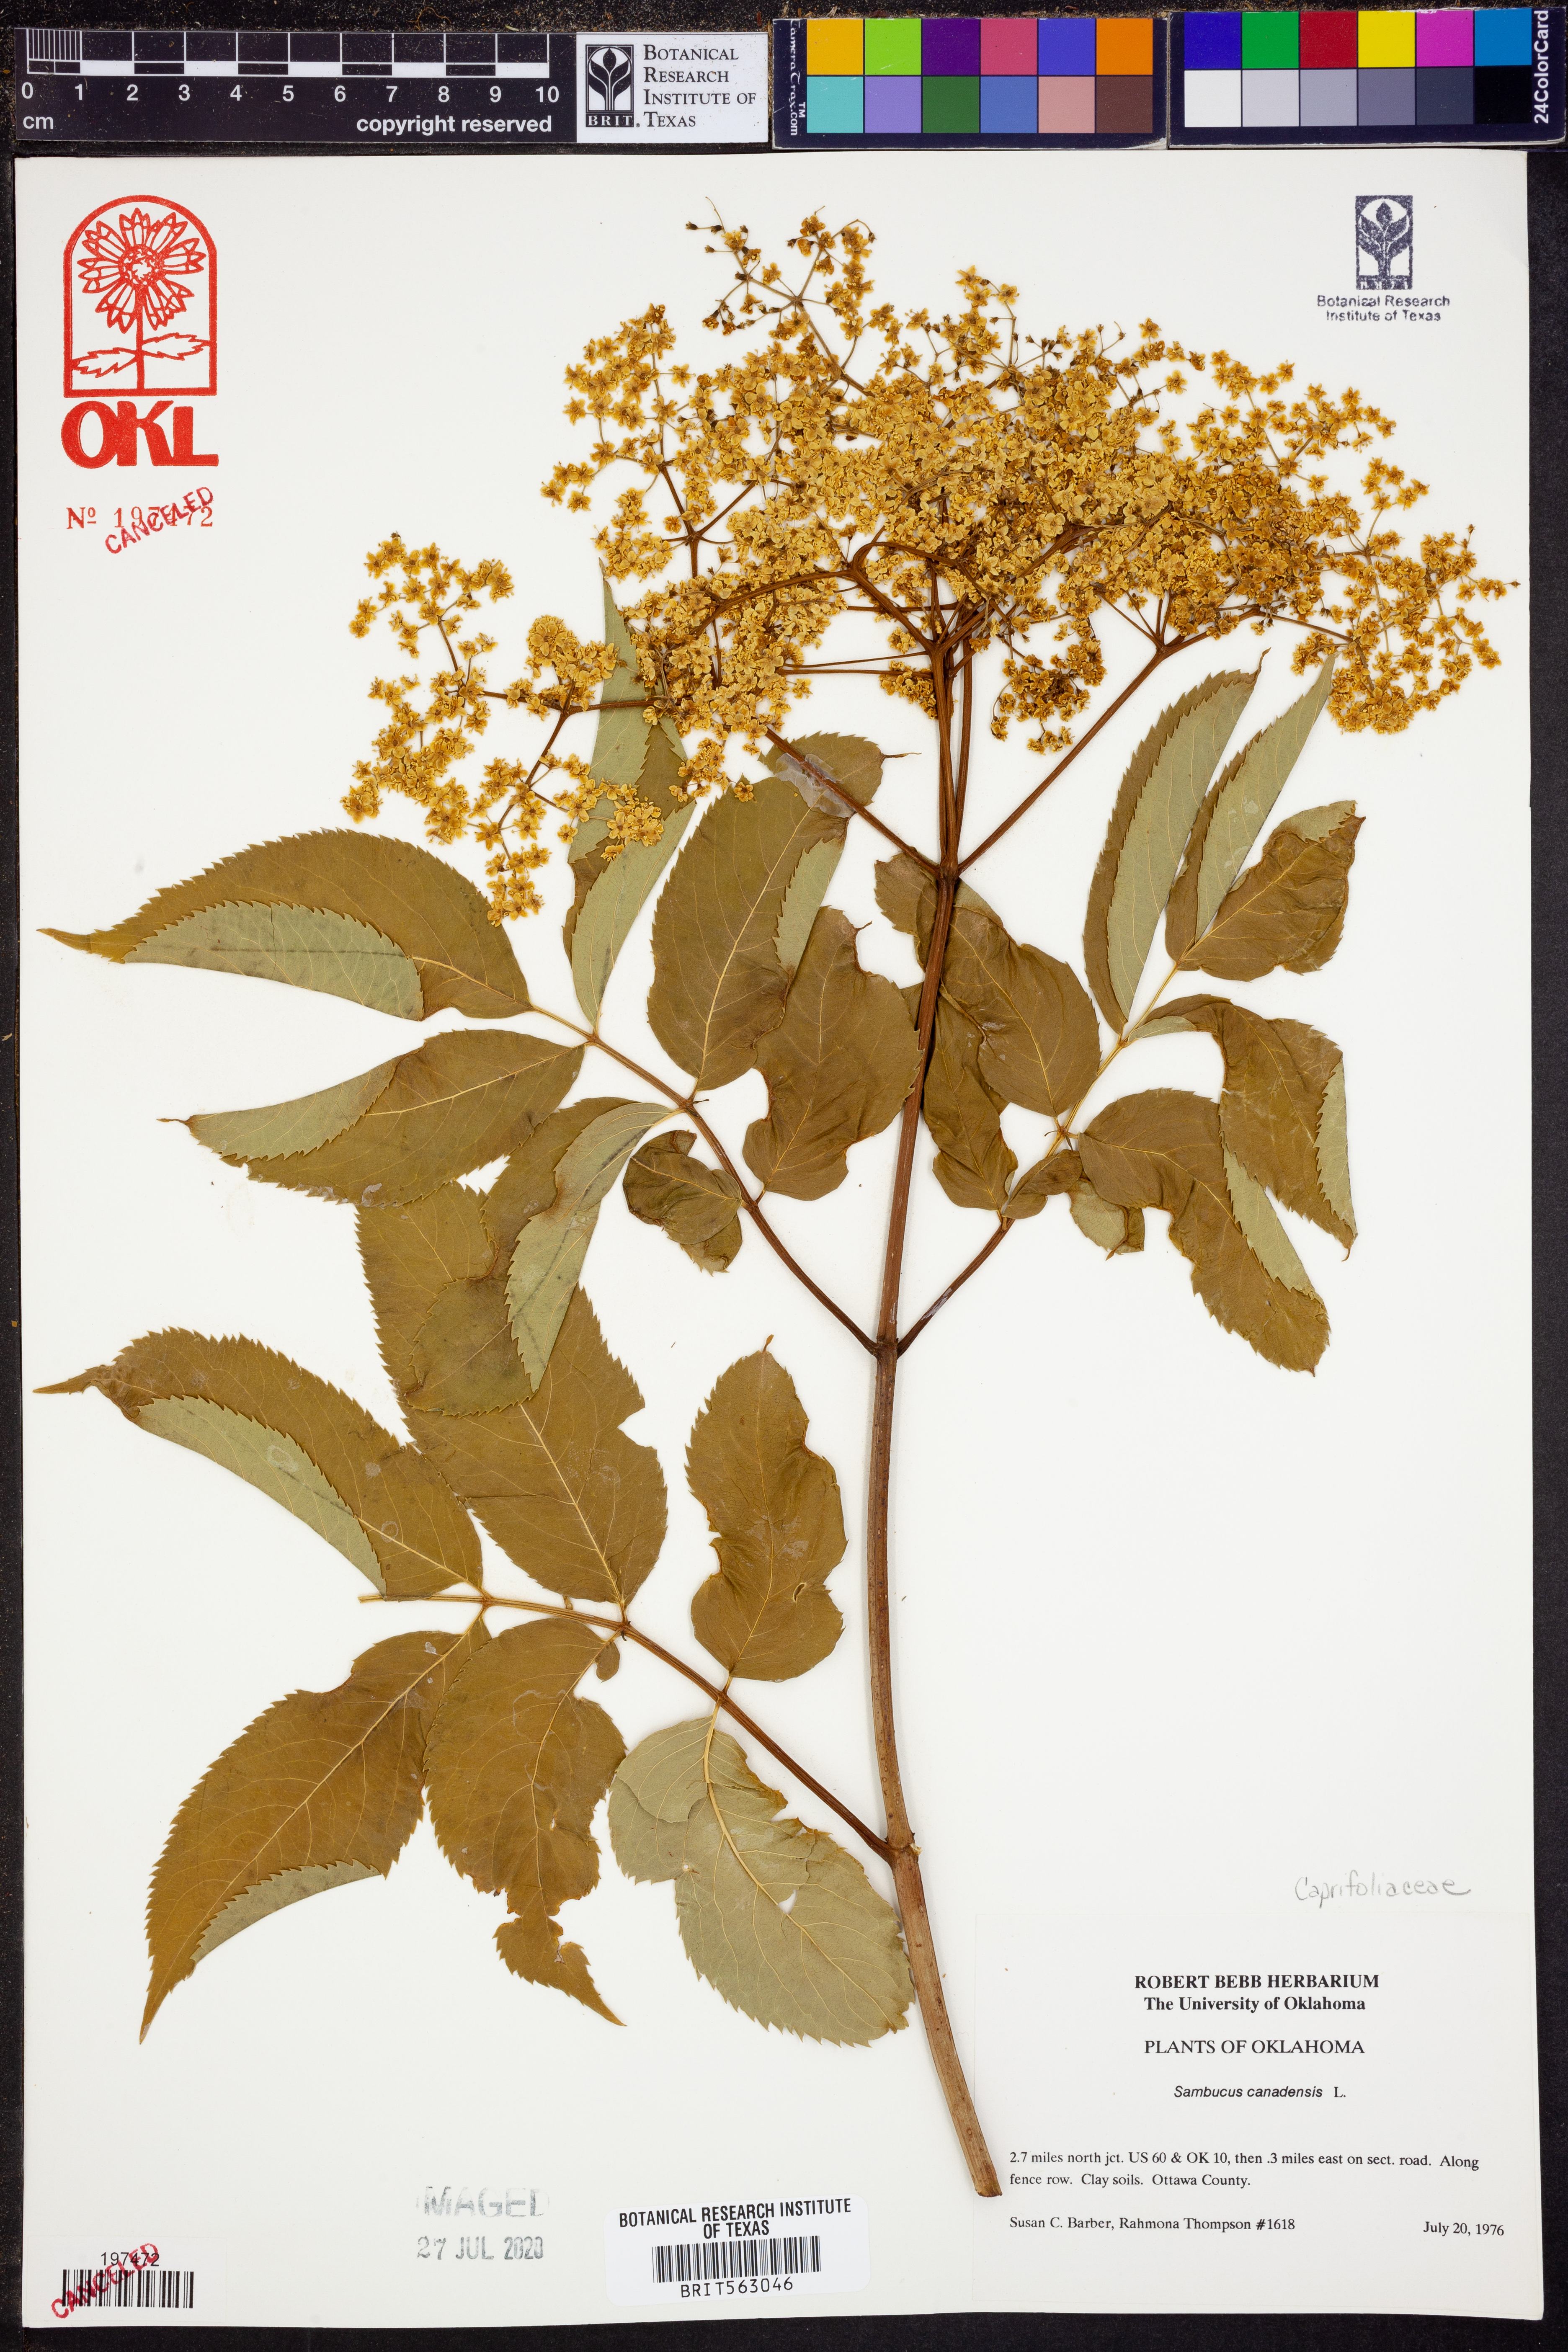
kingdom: Plantae
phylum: Tracheophyta
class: Magnoliopsida
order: Dipsacales
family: Viburnaceae
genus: Sambucus
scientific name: Sambucus canadensis
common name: American elder
